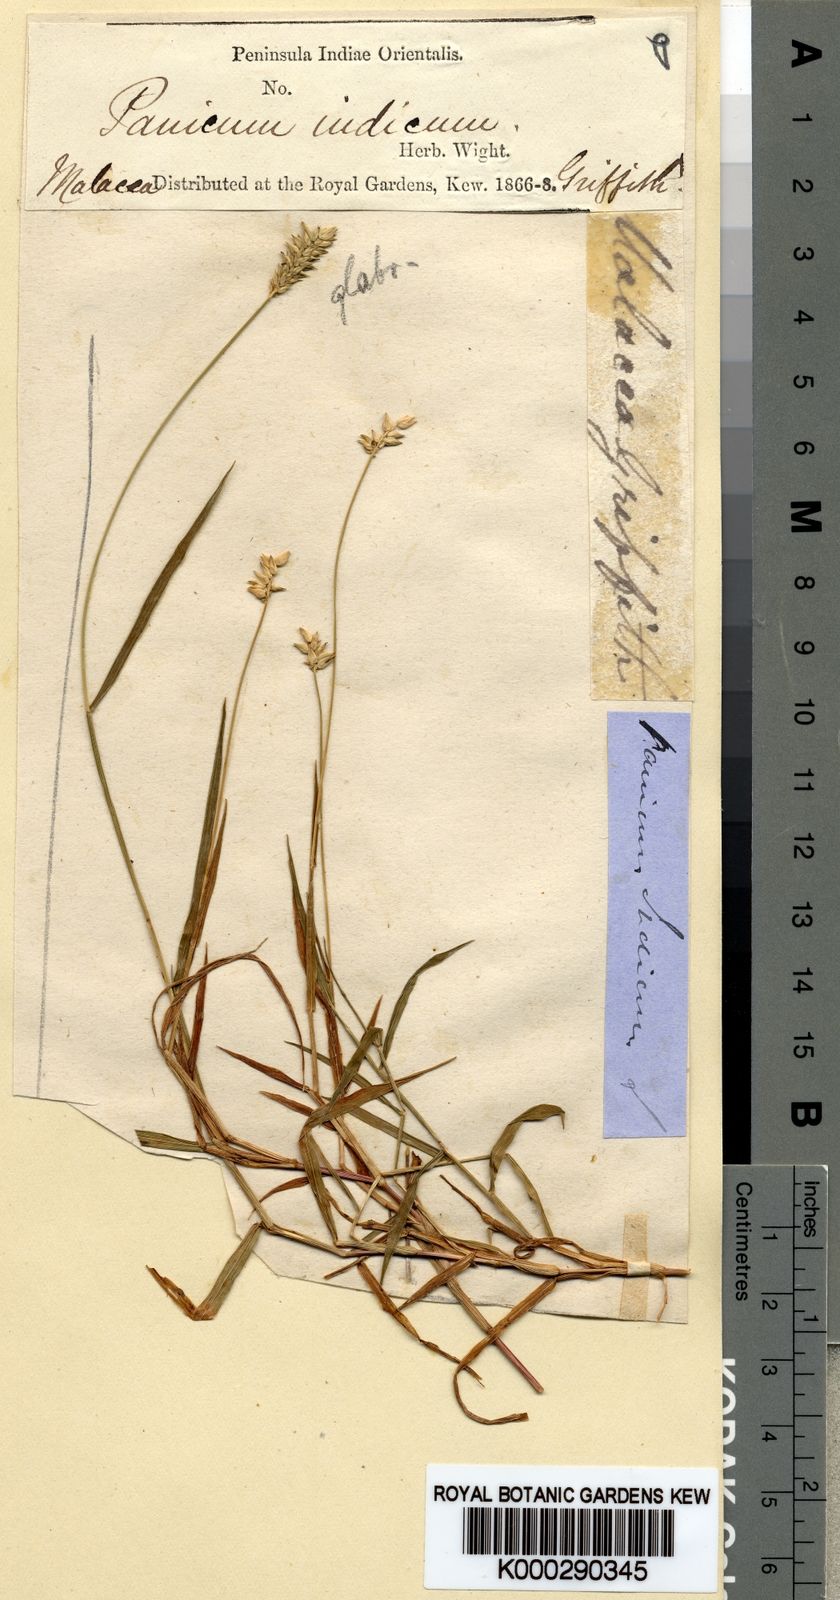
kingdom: Plantae
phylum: Tracheophyta
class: Liliopsida
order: Poales
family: Poaceae
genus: Sacciolepis
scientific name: Sacciolepis indica
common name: Glenwoodgrass
